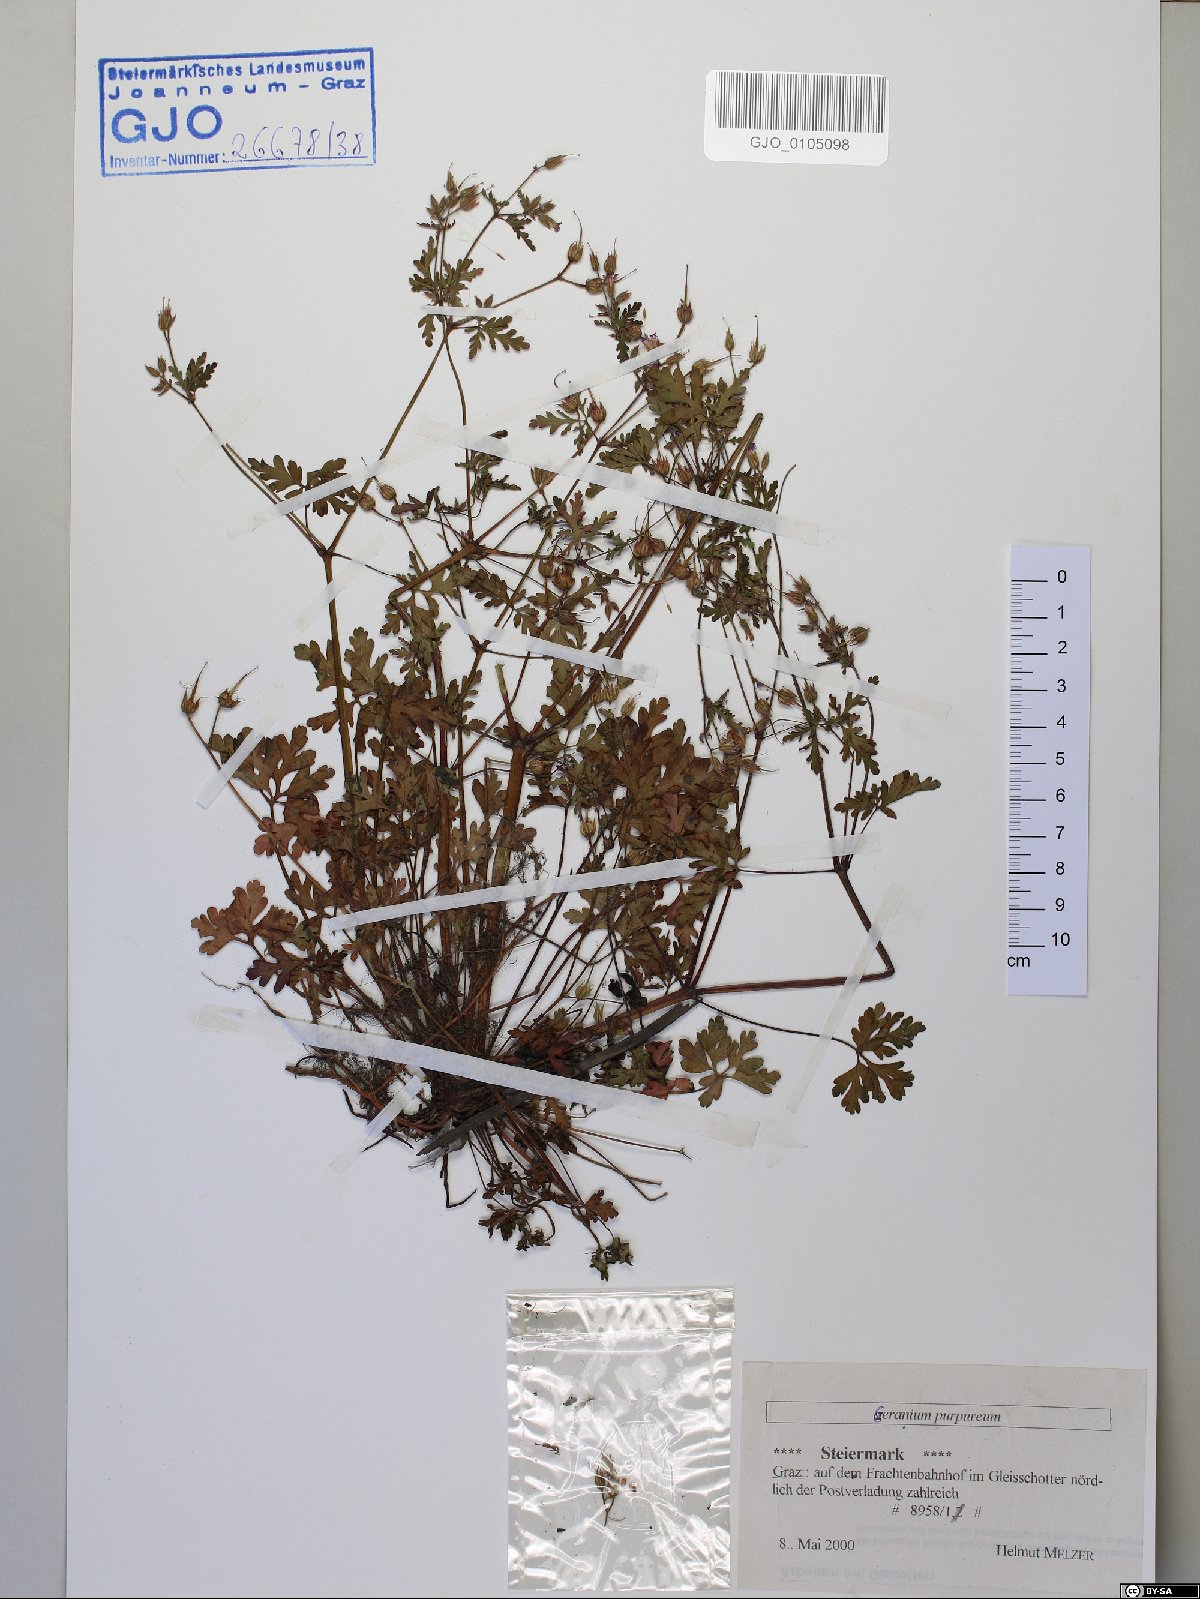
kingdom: Plantae
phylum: Tracheophyta
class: Magnoliopsida
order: Geraniales
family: Geraniaceae
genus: Geranium
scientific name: Geranium purpureum
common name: Little-robin
